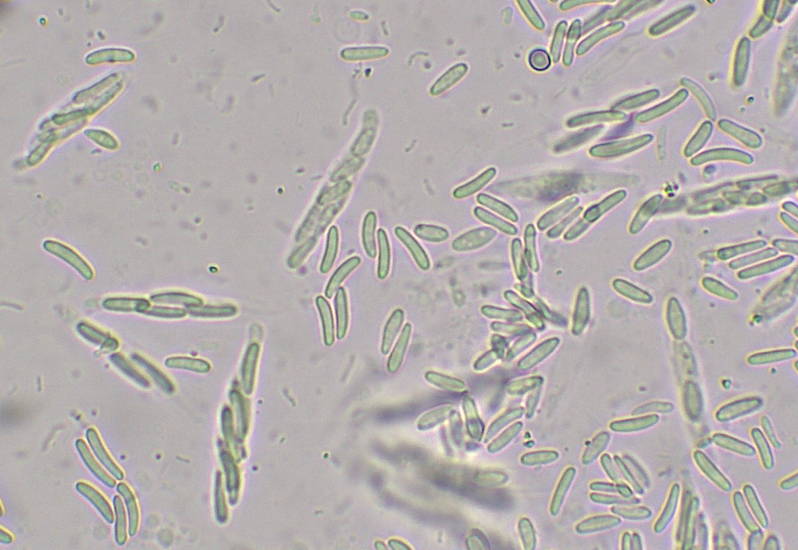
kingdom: Fungi
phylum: Ascomycota
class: Sordariomycetes
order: Xylariales
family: Diatrypaceae
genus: Eutypella
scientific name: Eutypella leprosa
